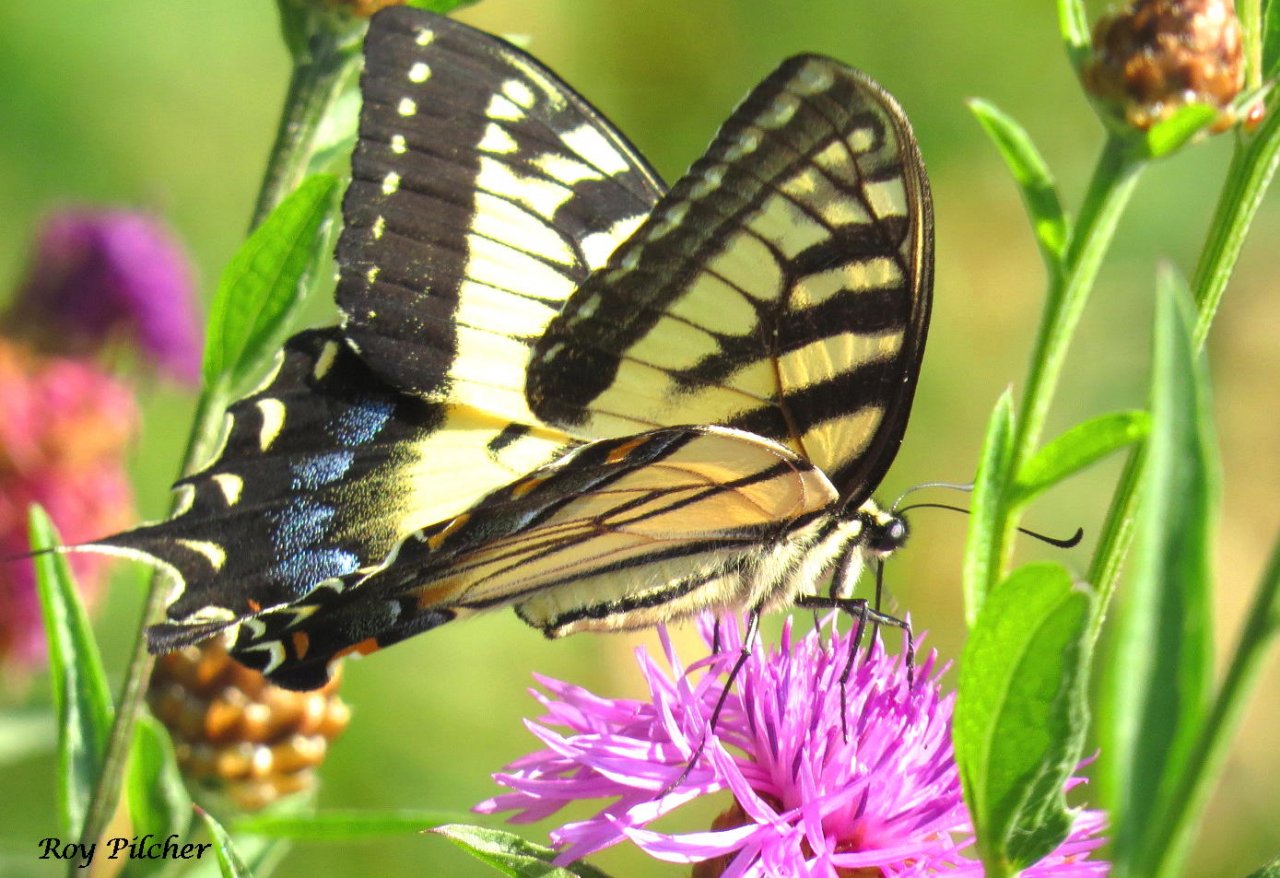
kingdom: Animalia
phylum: Arthropoda
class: Insecta
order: Lepidoptera
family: Papilionidae
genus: Pterourus
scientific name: Pterourus glaucus
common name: Eastern Tiger Swallowtail
